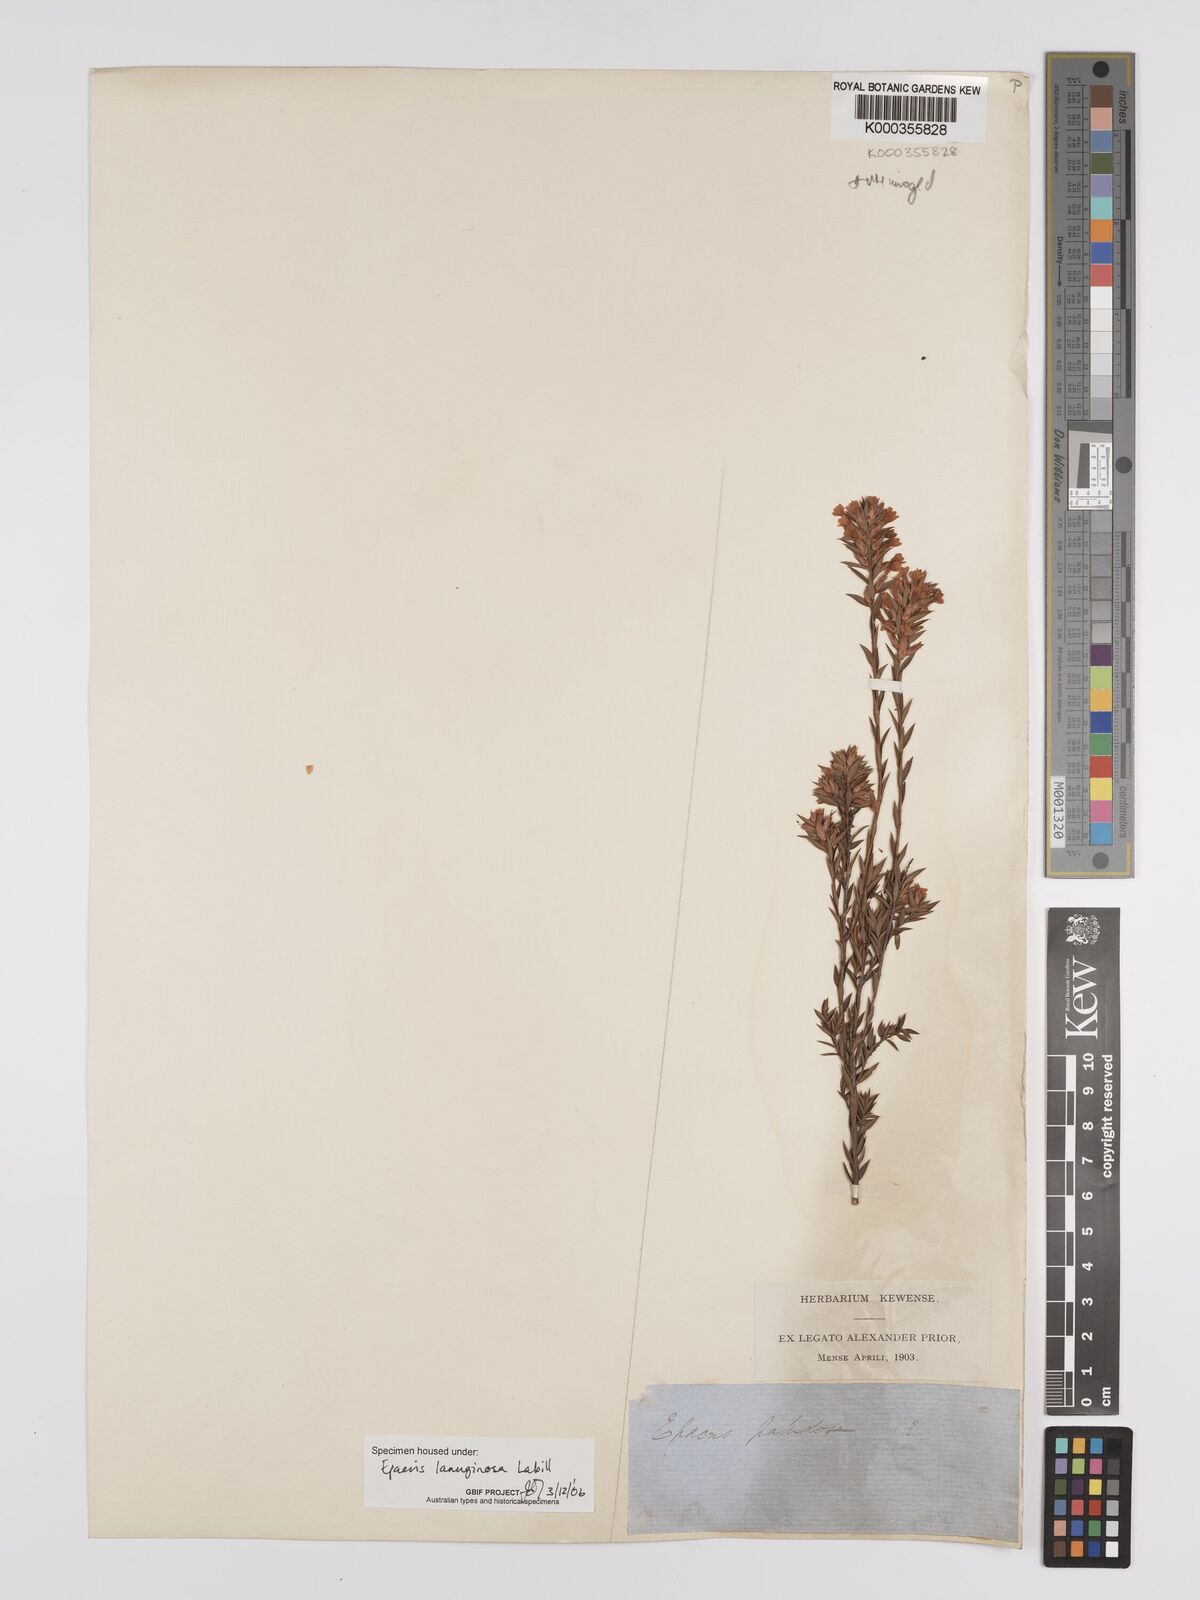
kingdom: Plantae
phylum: Tracheophyta
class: Magnoliopsida
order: Ericales
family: Ericaceae
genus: Epacris
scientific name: Epacris lanuginosa
